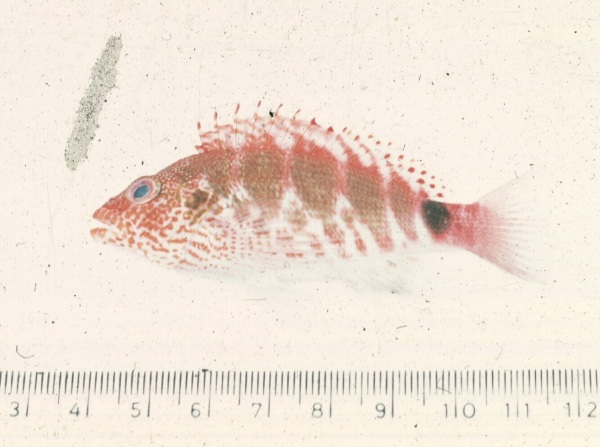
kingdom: Animalia
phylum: Chordata
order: Perciformes
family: Cirrhitidae
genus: Cirrhitops
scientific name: Cirrhitops fasciatus
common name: Redbarred hawkfish
